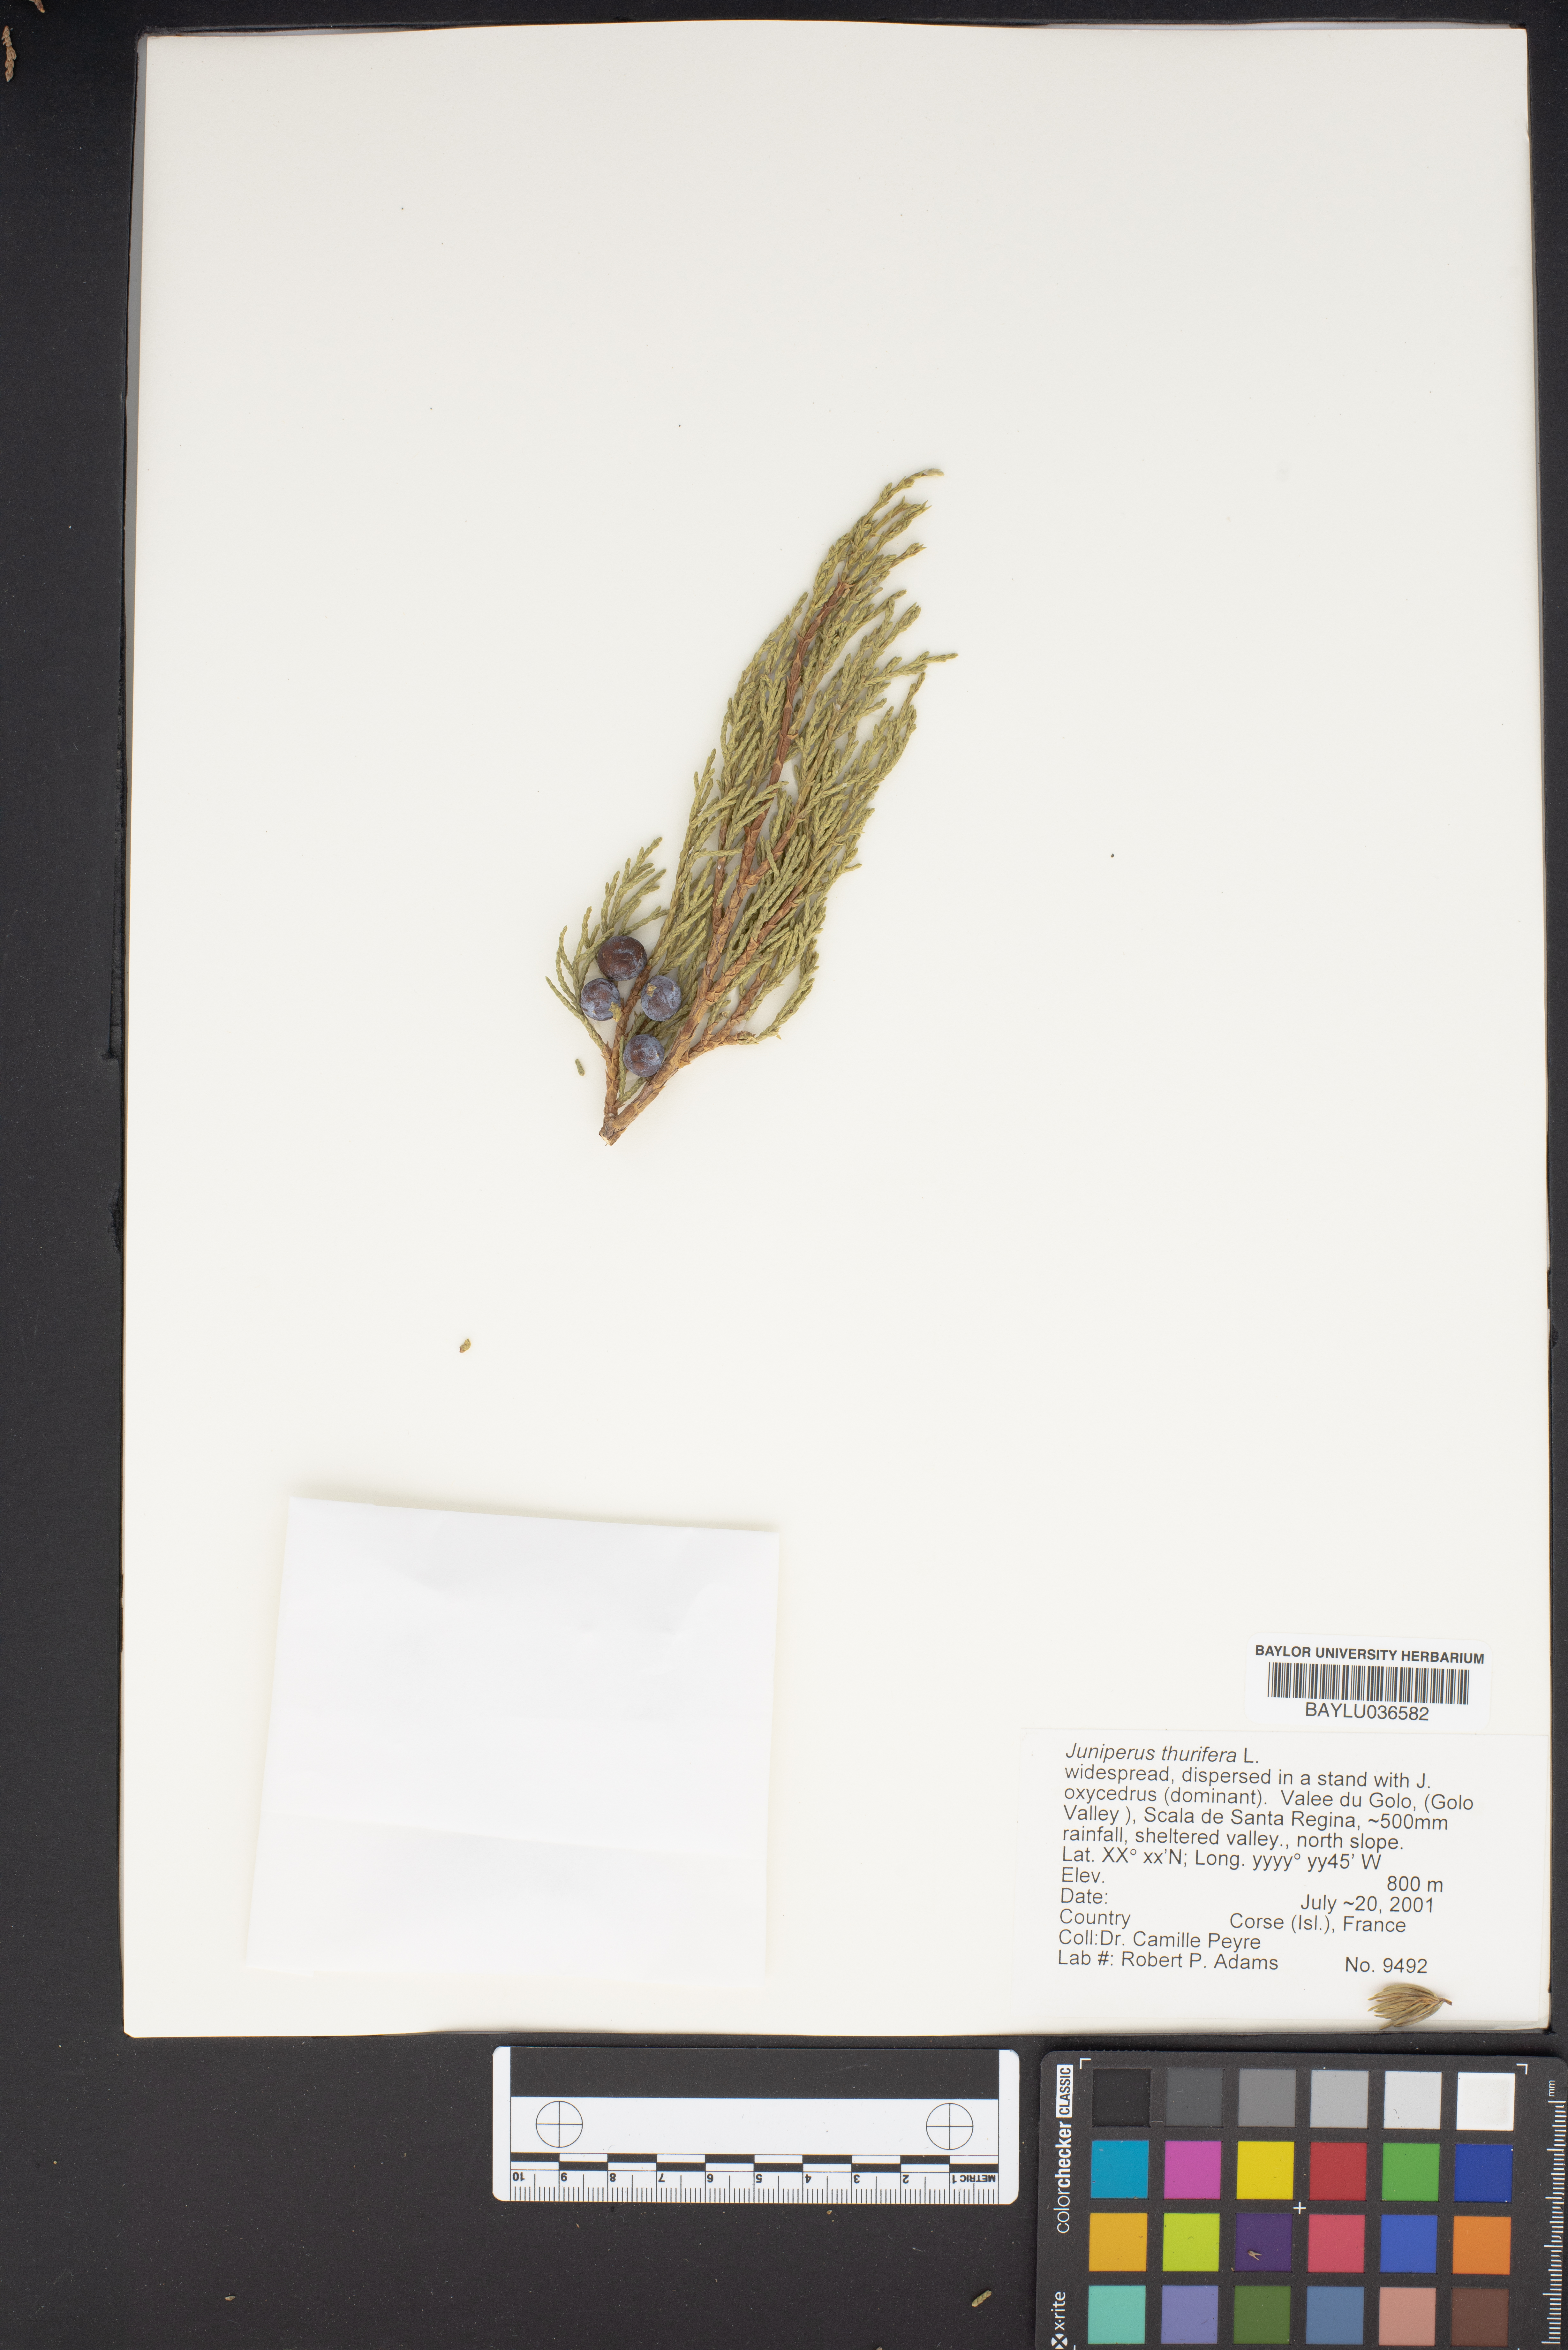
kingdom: Plantae
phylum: Tracheophyta
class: Pinopsida
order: Pinales
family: Cupressaceae
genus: Juniperus
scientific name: Juniperus thurifera
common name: Incense juniper
